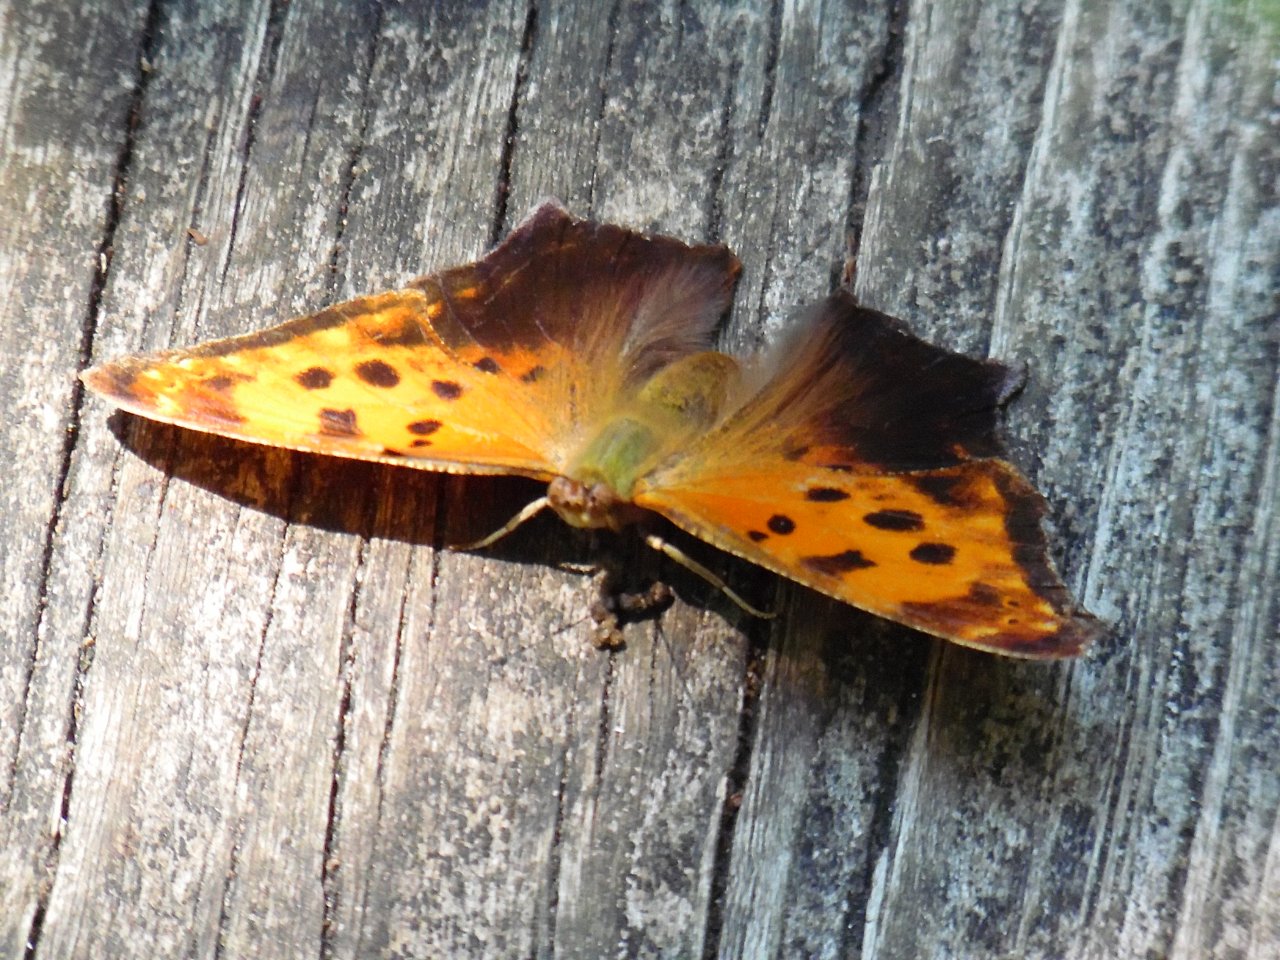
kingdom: Animalia
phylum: Arthropoda
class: Insecta
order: Lepidoptera
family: Nymphalidae
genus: Polygonia
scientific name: Polygonia comma
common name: Eastern Comma
